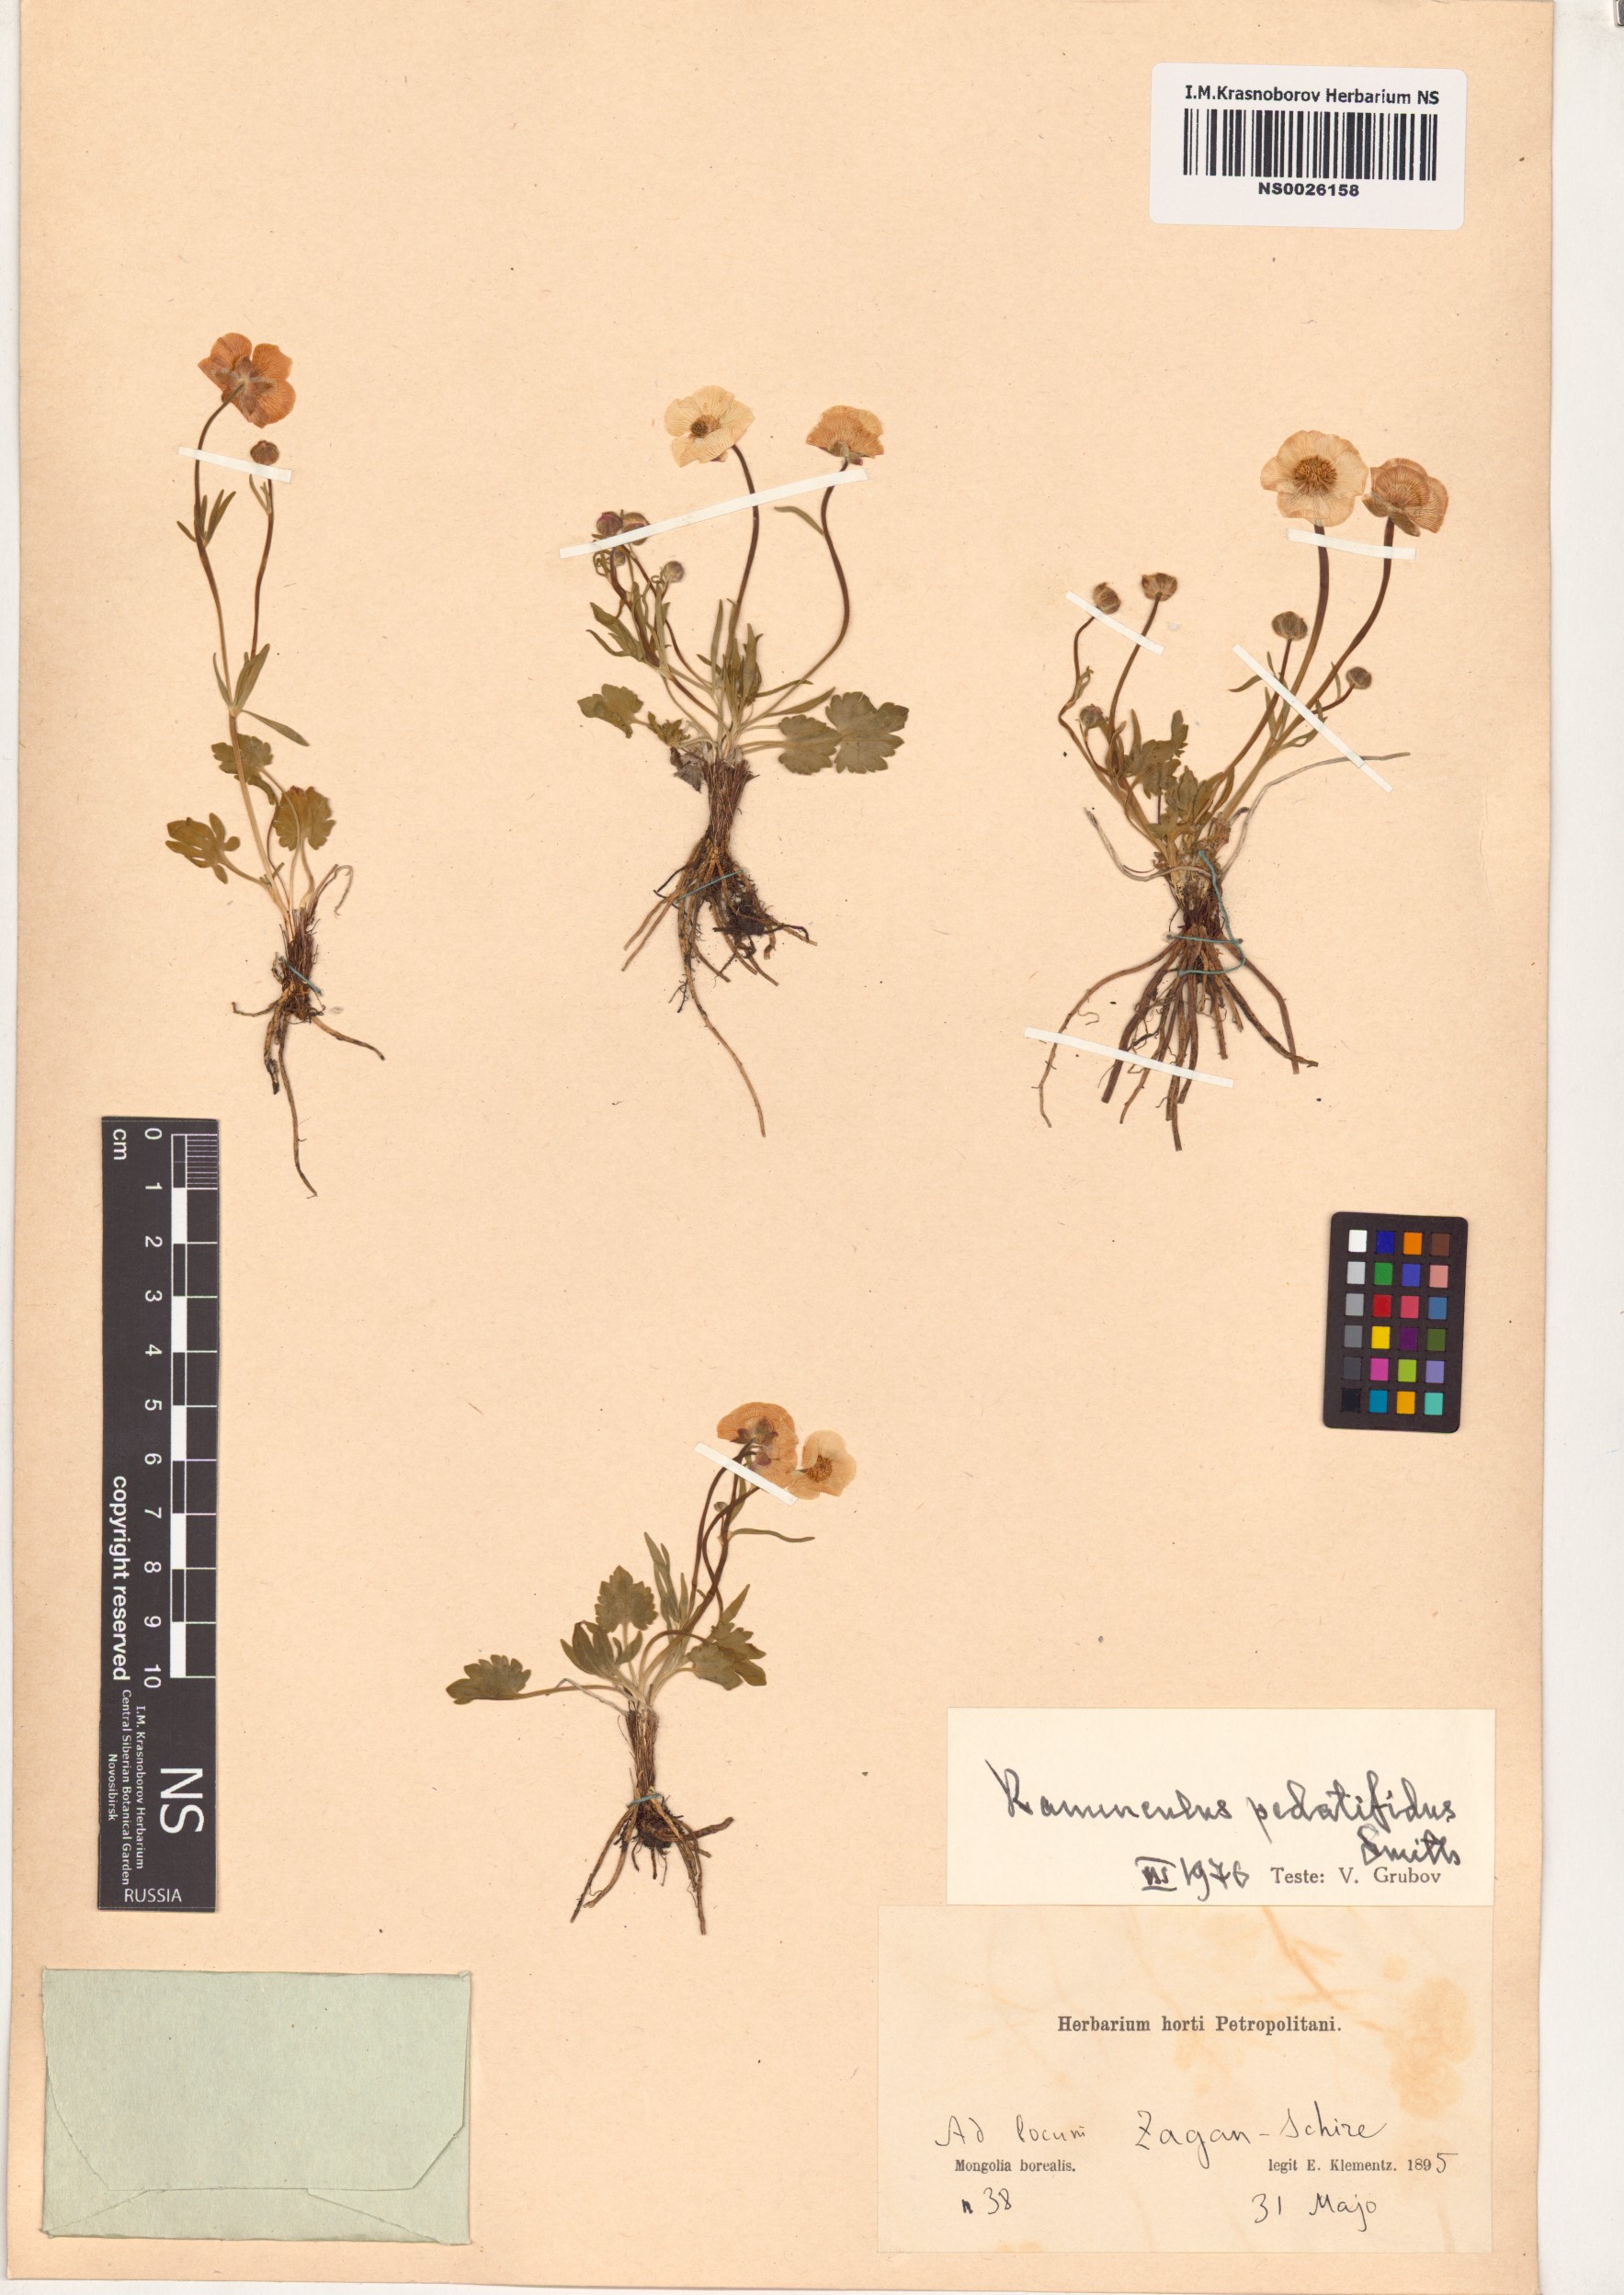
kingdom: Plantae
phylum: Tracheophyta
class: Magnoliopsida
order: Ranunculales
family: Ranunculaceae
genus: Ranunculus
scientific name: Ranunculus pedatifidus
